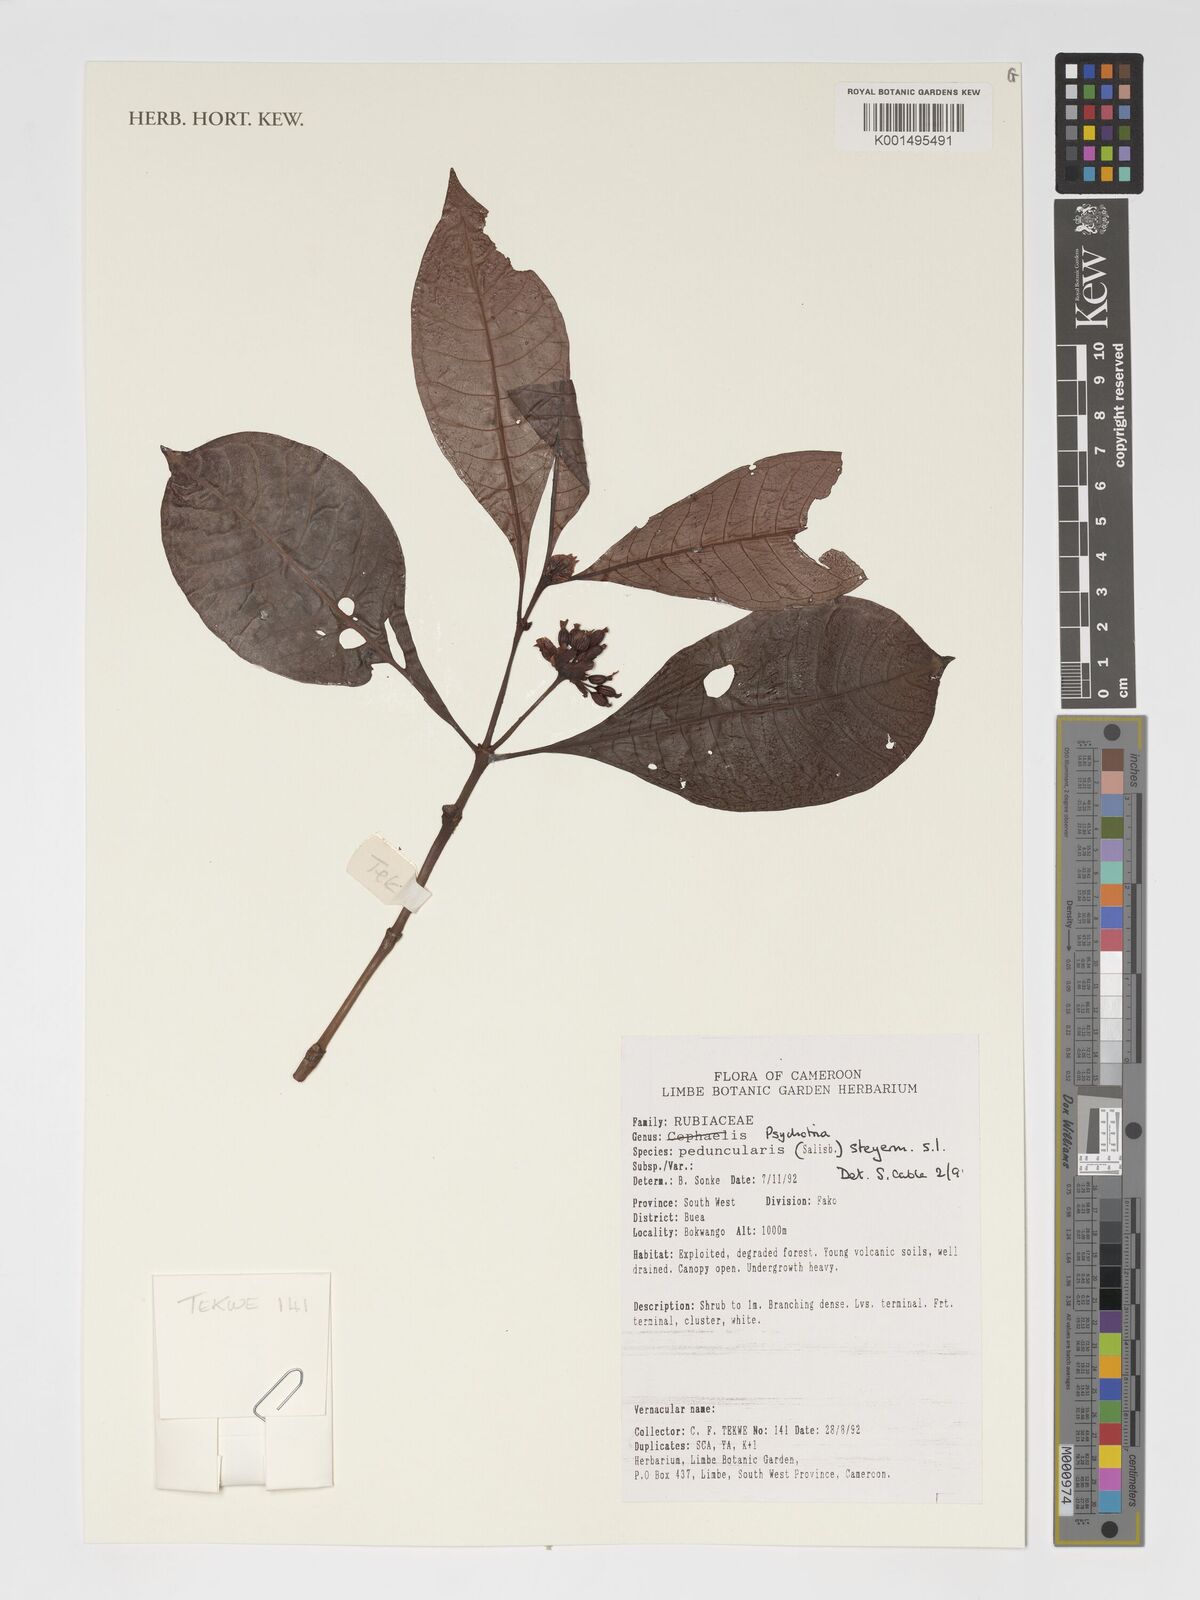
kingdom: Plantae
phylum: Tracheophyta
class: Magnoliopsida
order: Gentianales
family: Rubiaceae
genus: Psychotria
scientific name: Psychotria peduncularis
